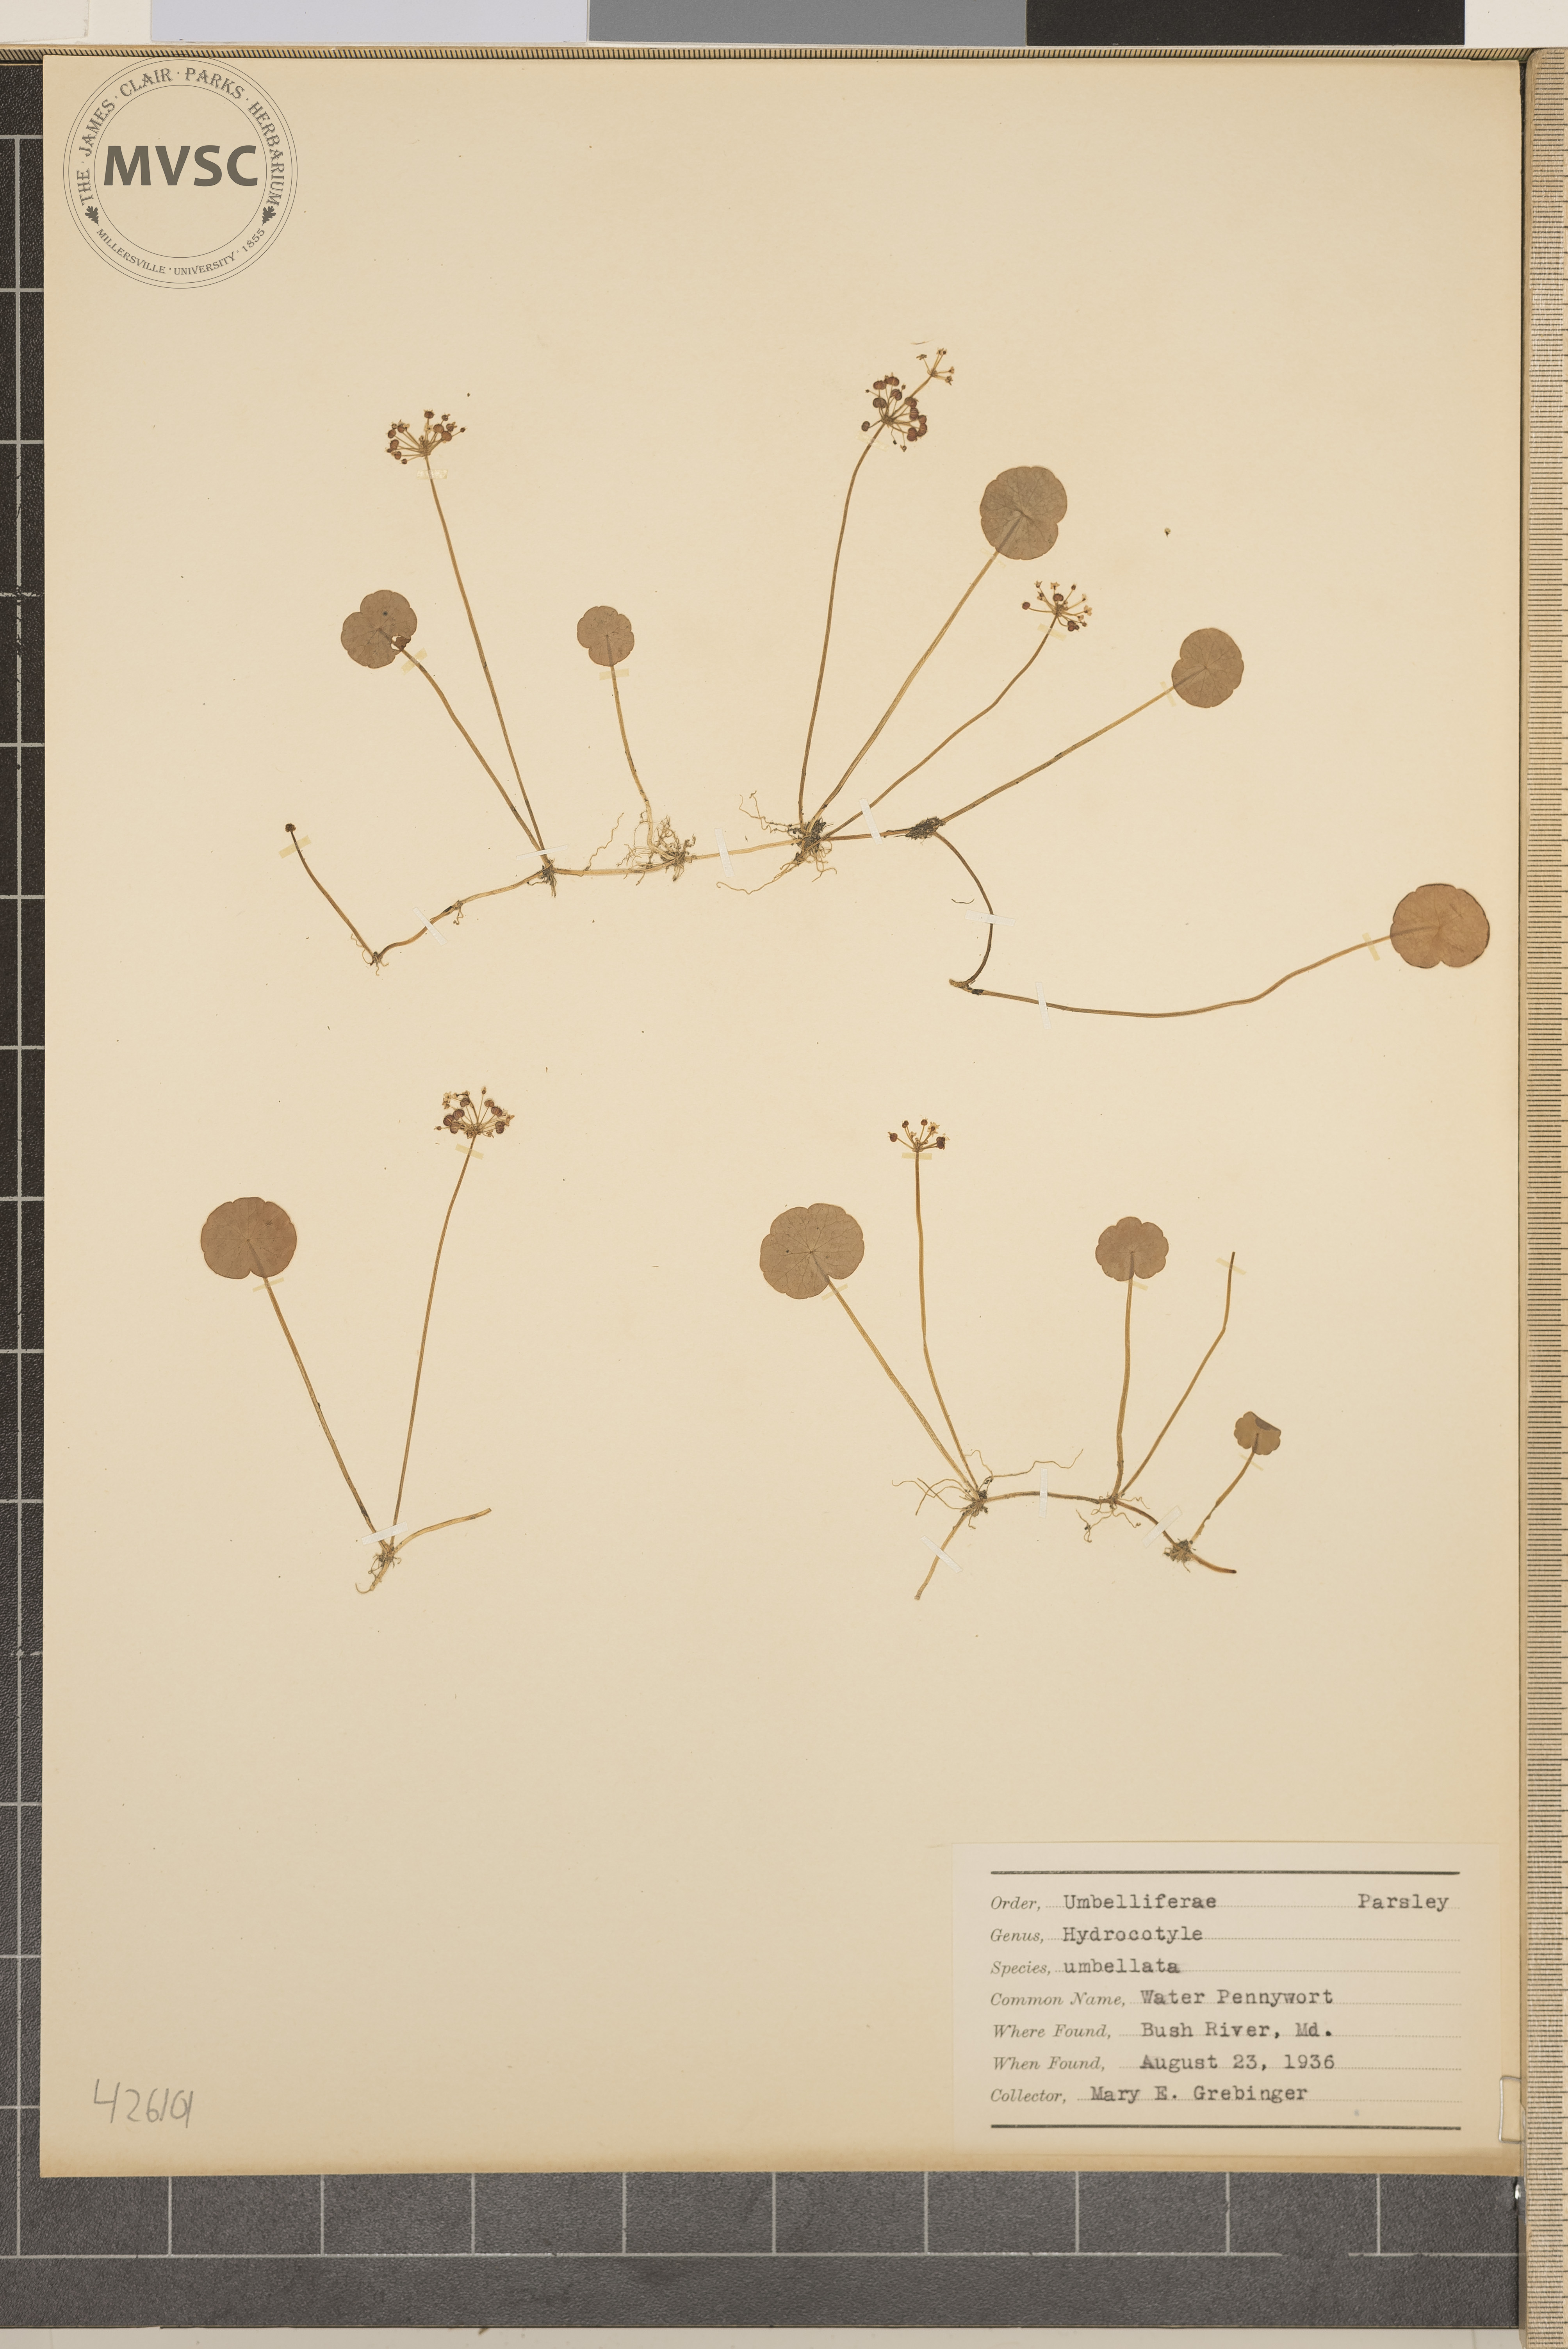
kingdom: Plantae
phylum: Tracheophyta
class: Magnoliopsida
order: Apiales
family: Araliaceae
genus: Hydrocotyle
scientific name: Hydrocotyle umbellata
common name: Water pennywort
